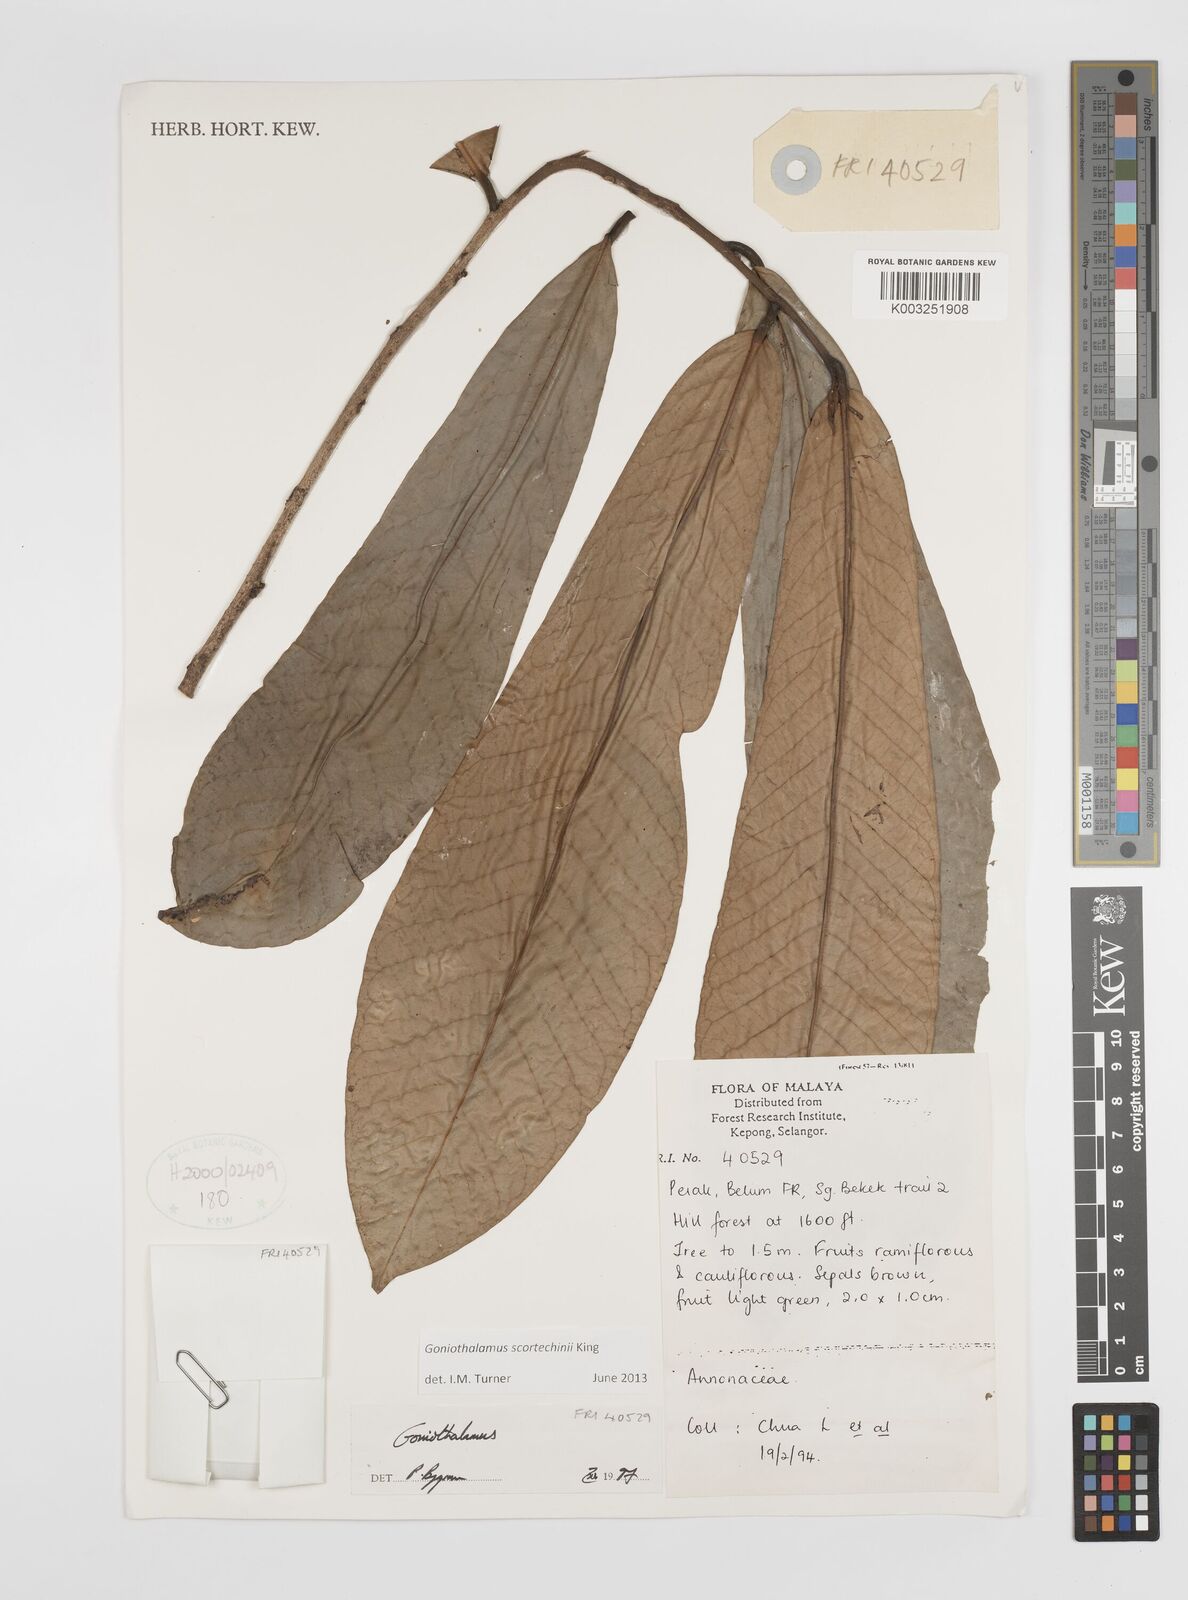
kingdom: Plantae
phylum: Tracheophyta
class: Magnoliopsida
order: Magnoliales
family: Annonaceae
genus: Goniothalamus
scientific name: Goniothalamus scortechinii
